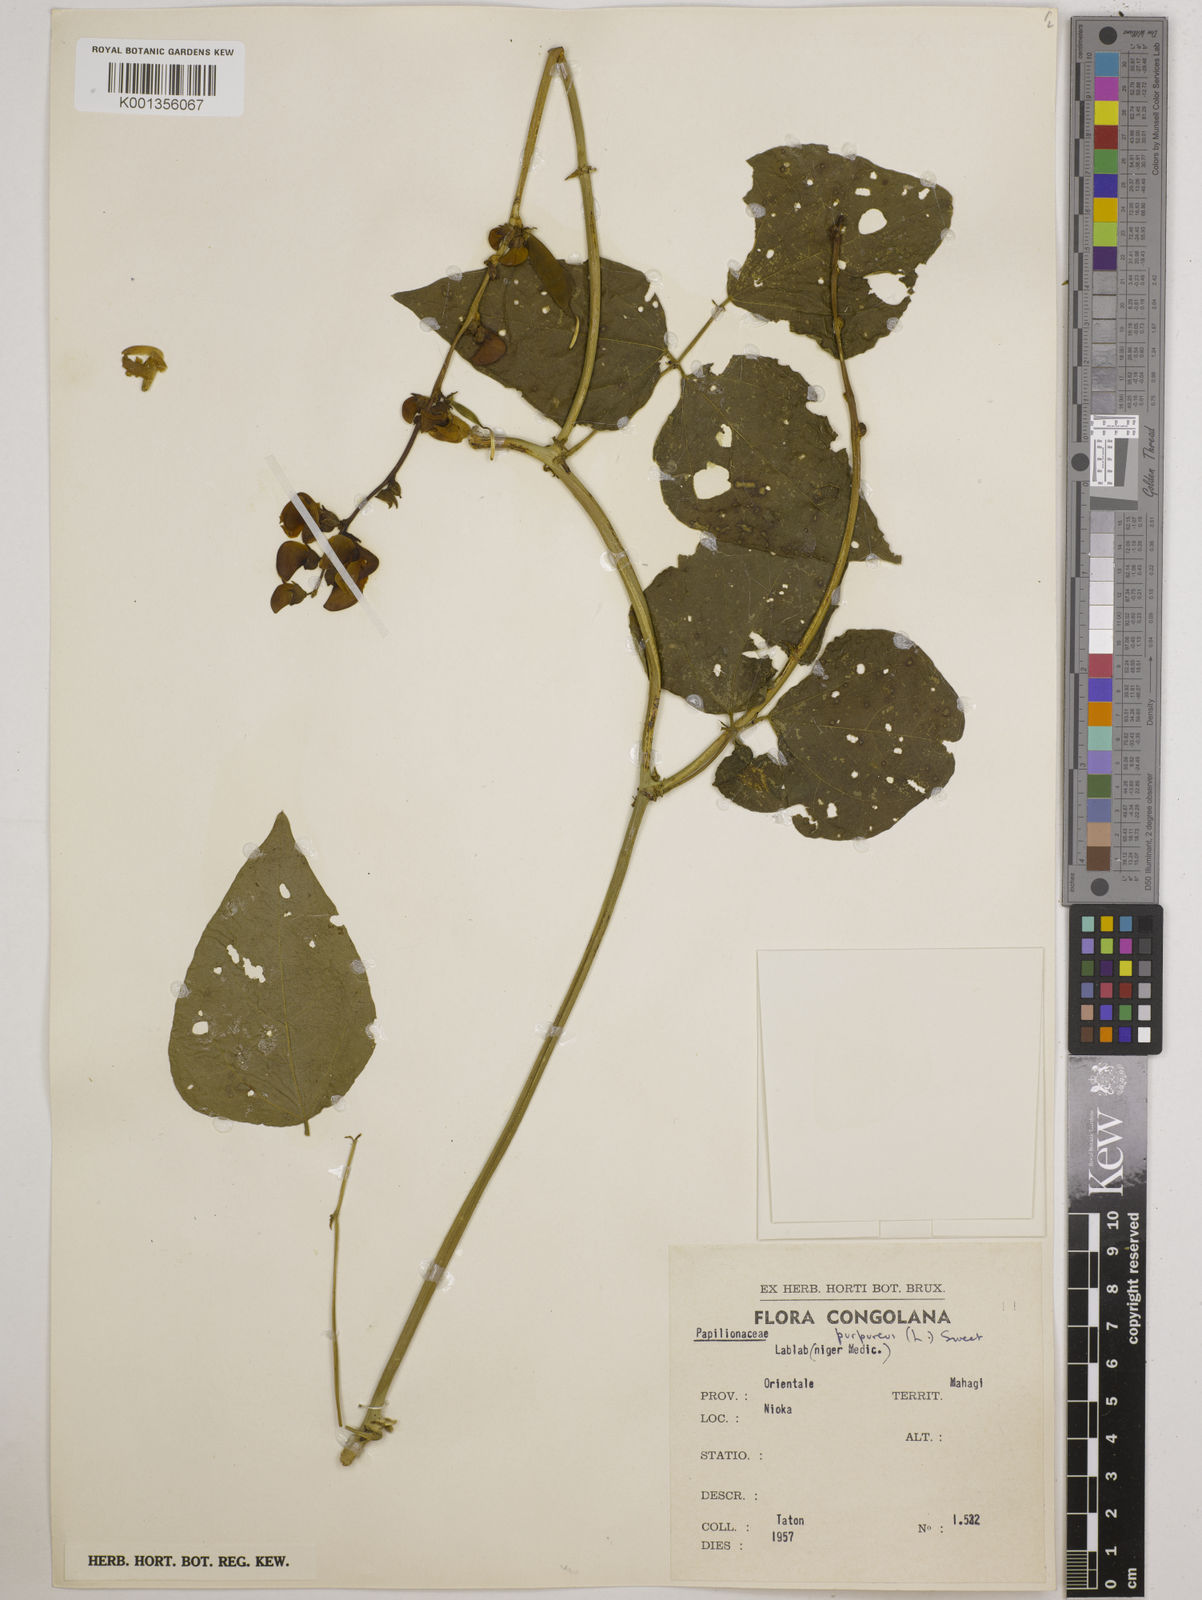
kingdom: Plantae
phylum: Tracheophyta
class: Magnoliopsida
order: Fabales
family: Fabaceae
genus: Lablab
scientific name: Lablab purpureus
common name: Lablab-bean
